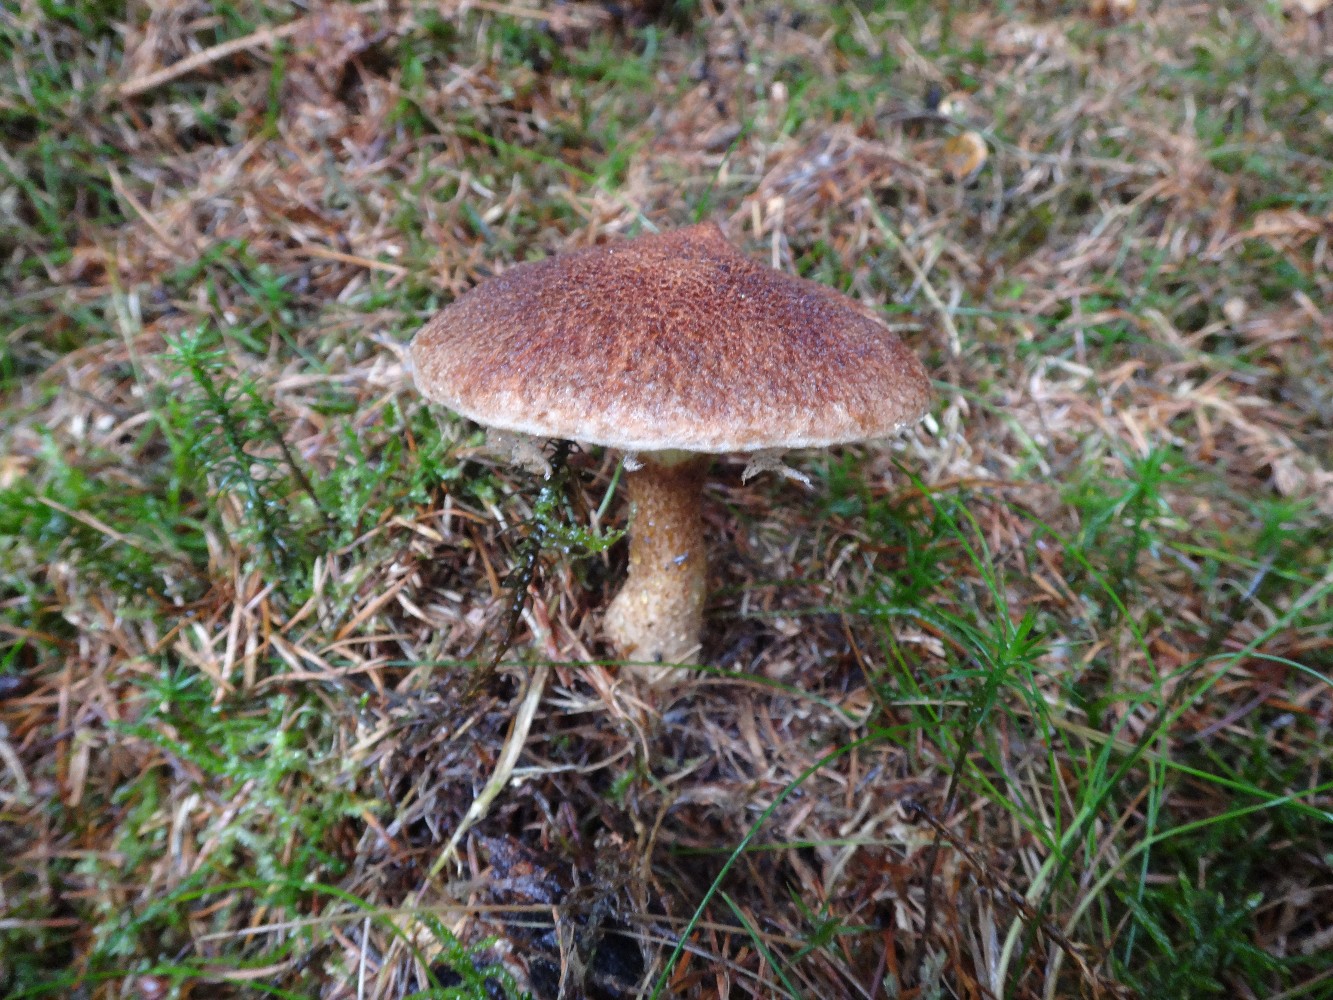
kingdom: Fungi
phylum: Basidiomycota
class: Agaricomycetes
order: Boletales
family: Suillaceae
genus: Suillus
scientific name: Suillus cavipes
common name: hulstokket slimrørhat
